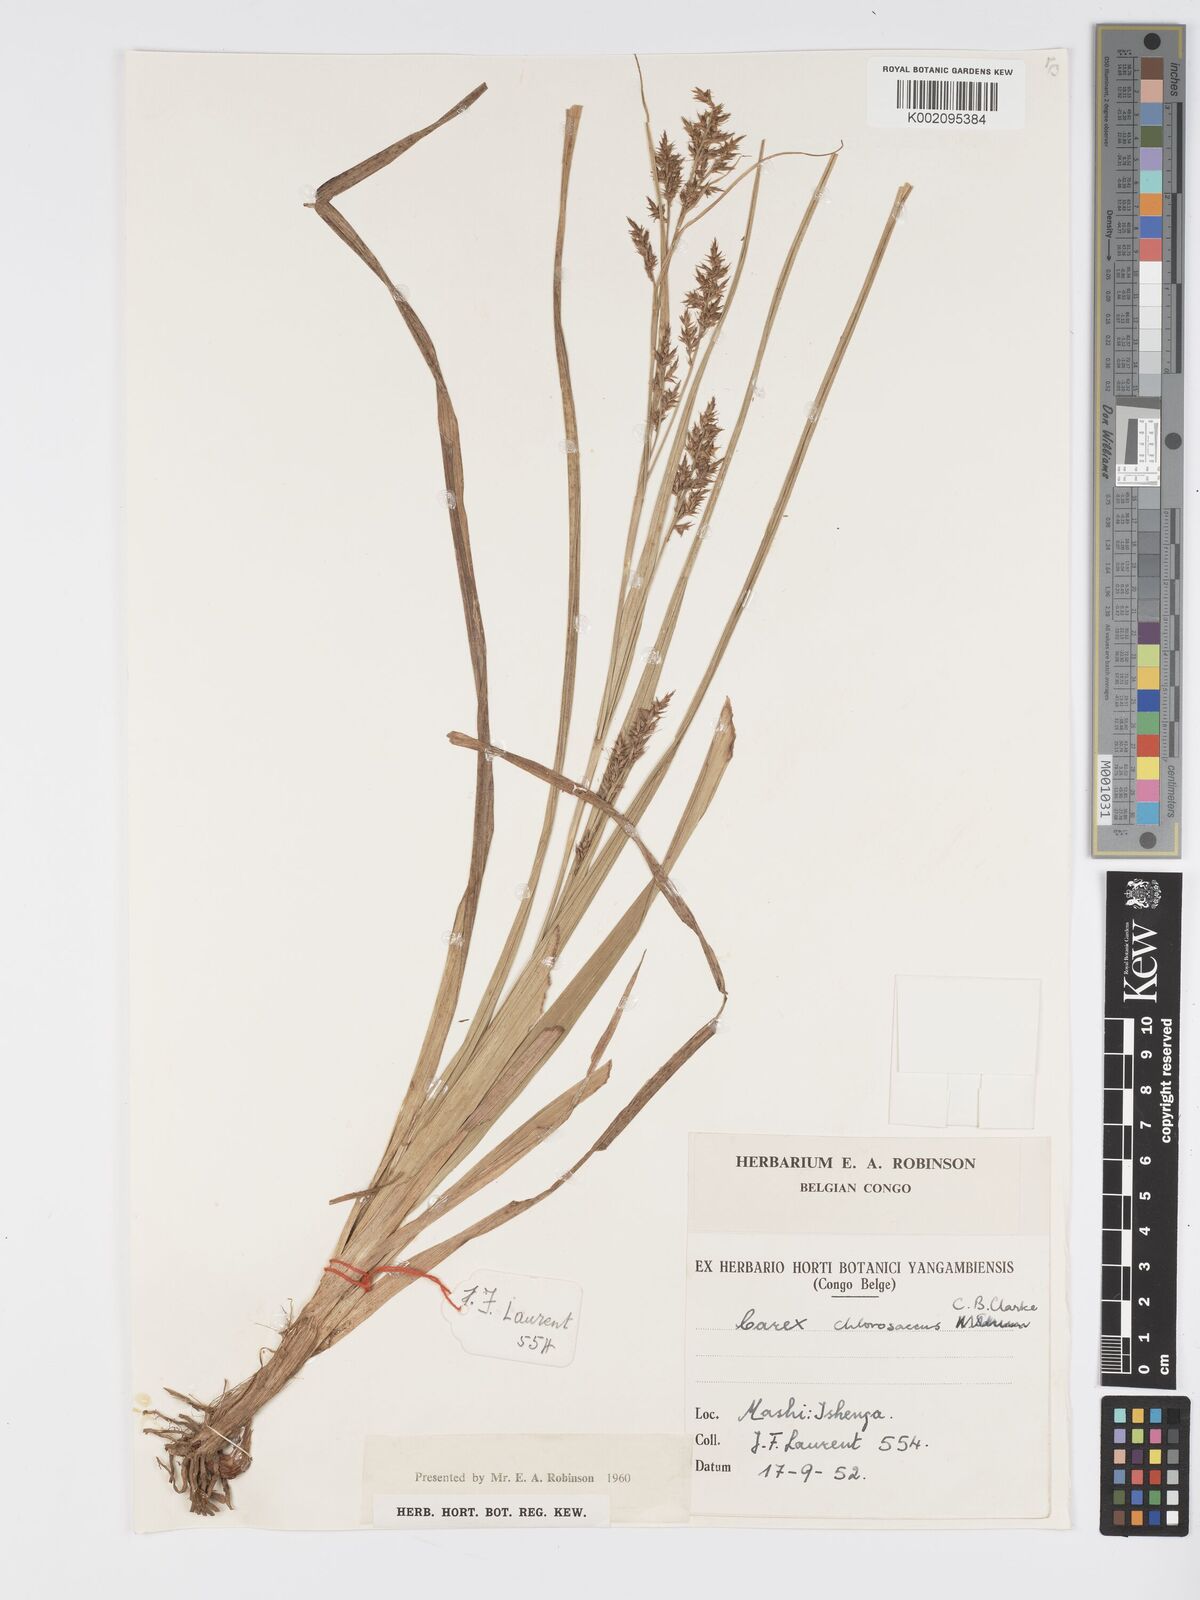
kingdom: Plantae
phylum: Tracheophyta
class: Liliopsida
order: Poales
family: Cyperaceae
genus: Carex
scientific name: Carex macrophyllidion
